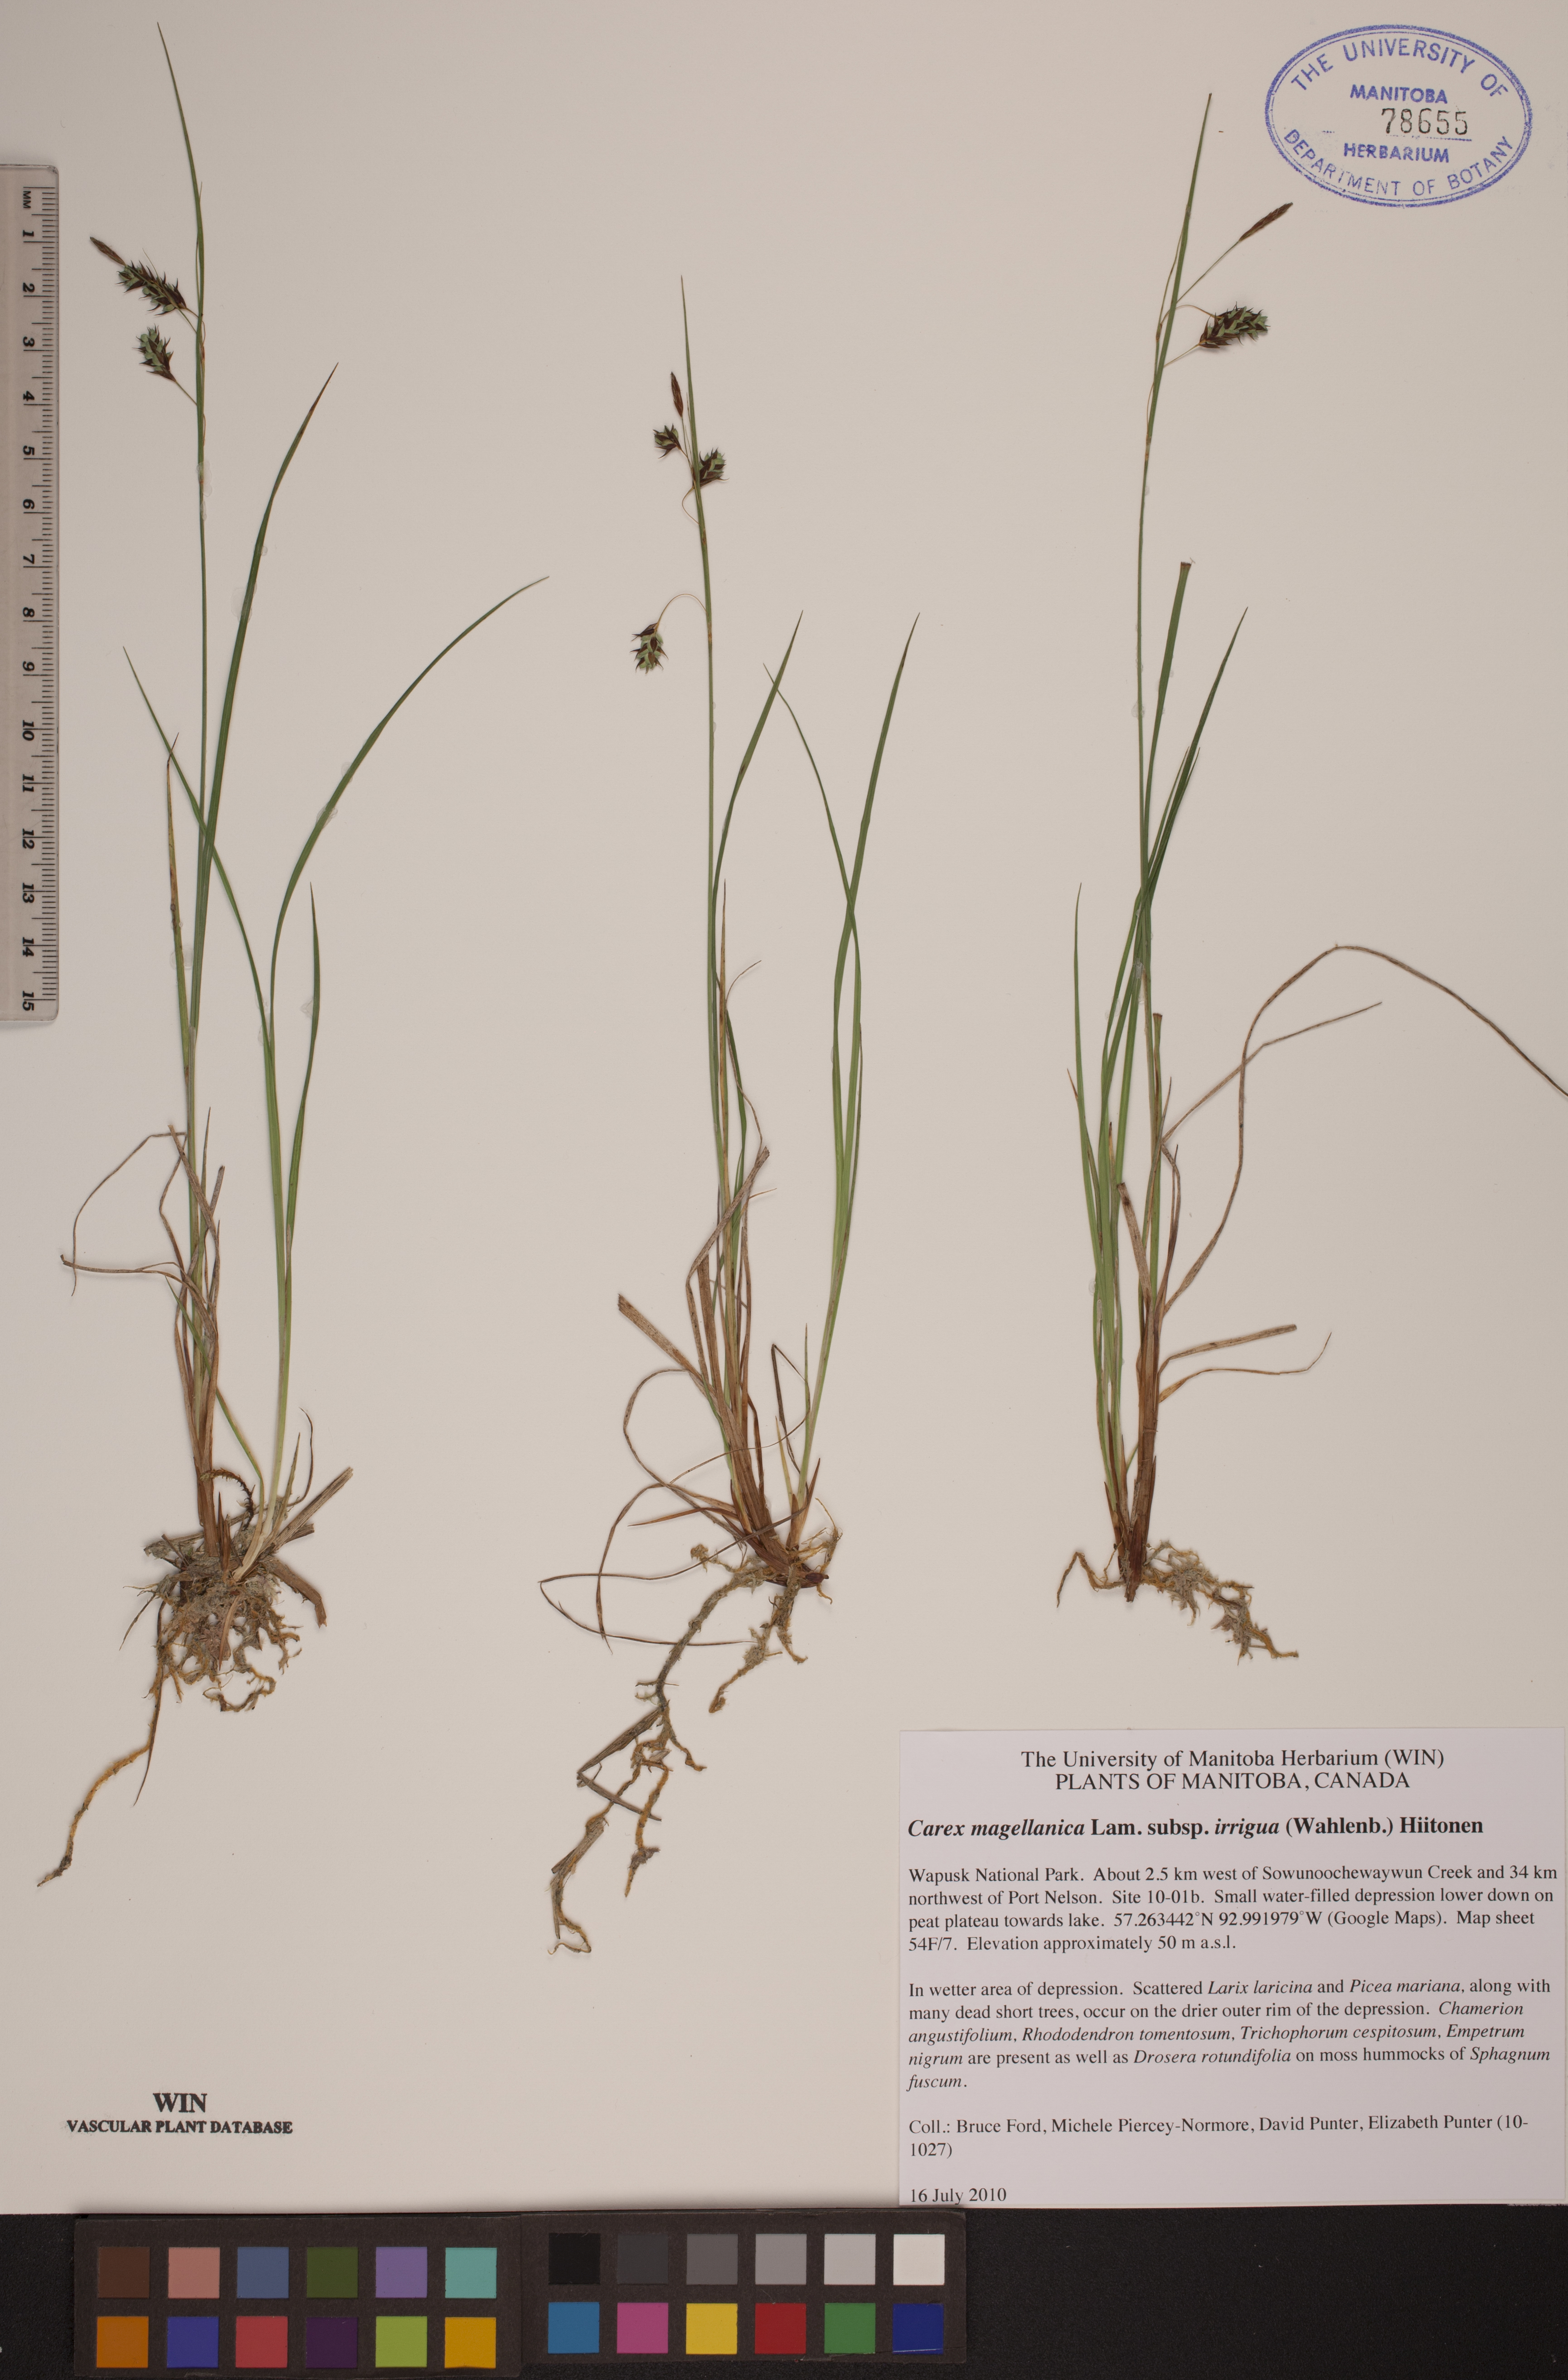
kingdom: Plantae
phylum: Tracheophyta
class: Liliopsida
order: Poales
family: Cyperaceae
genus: Carex
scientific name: Carex magellanica
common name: Bog sedge
